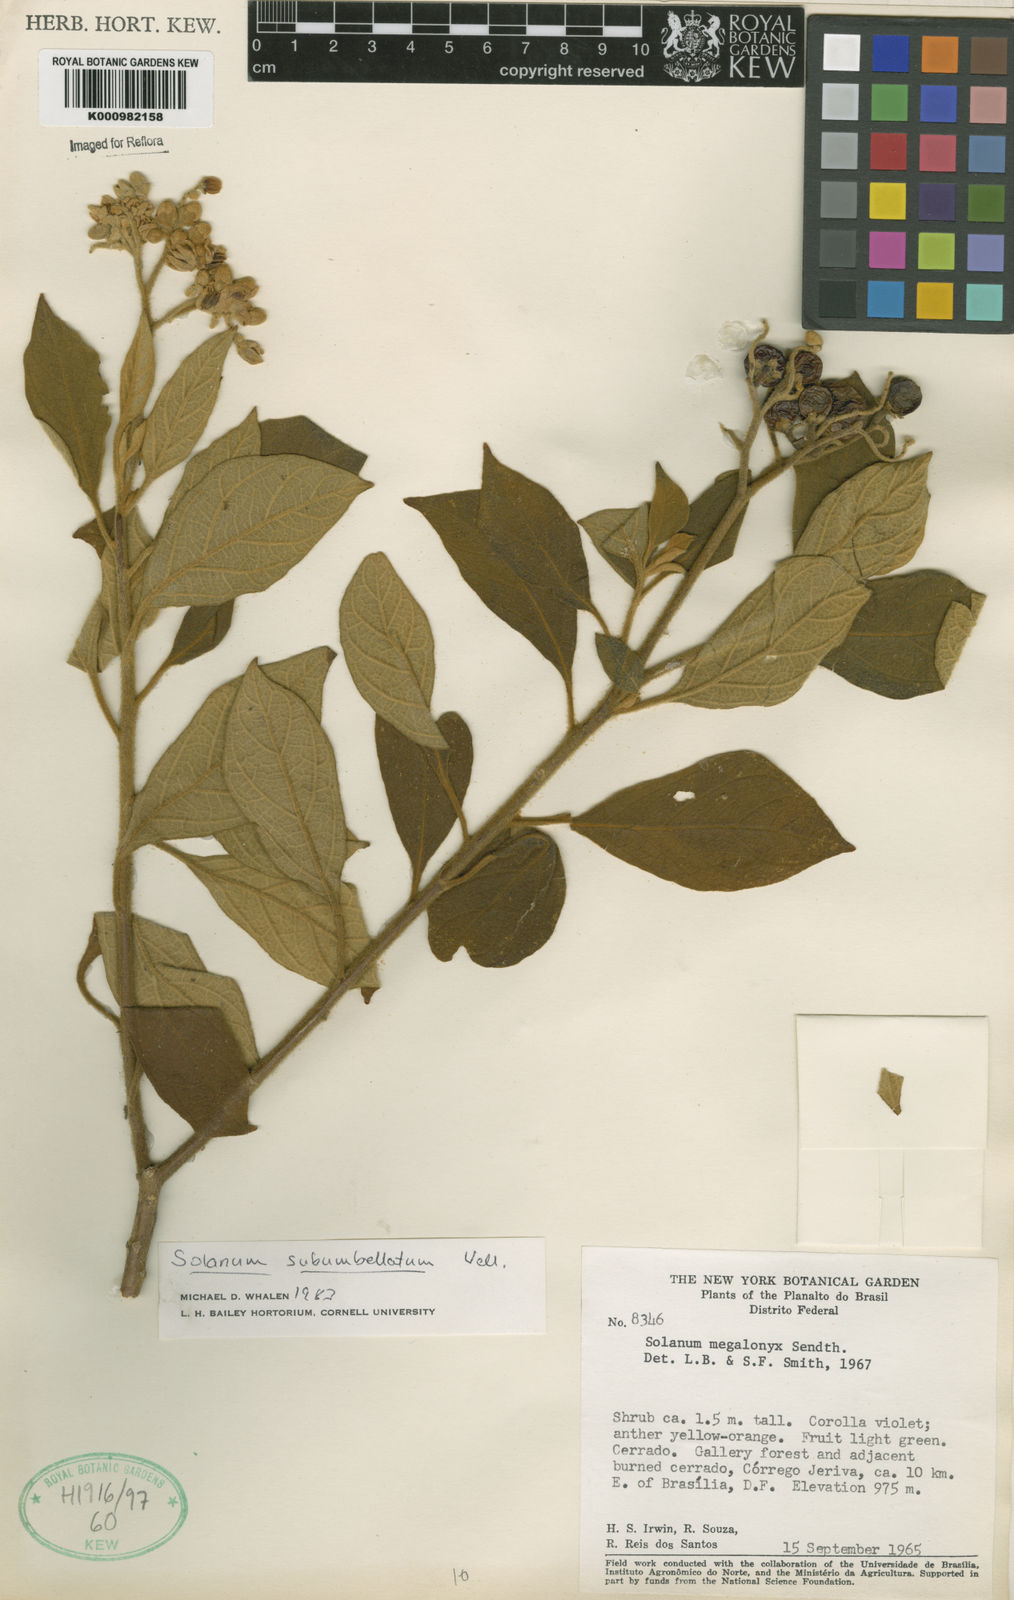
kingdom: Plantae
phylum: Tracheophyta
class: Magnoliopsida
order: Solanales
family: Solanaceae
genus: Solanum
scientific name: Solanum subumbellatum
